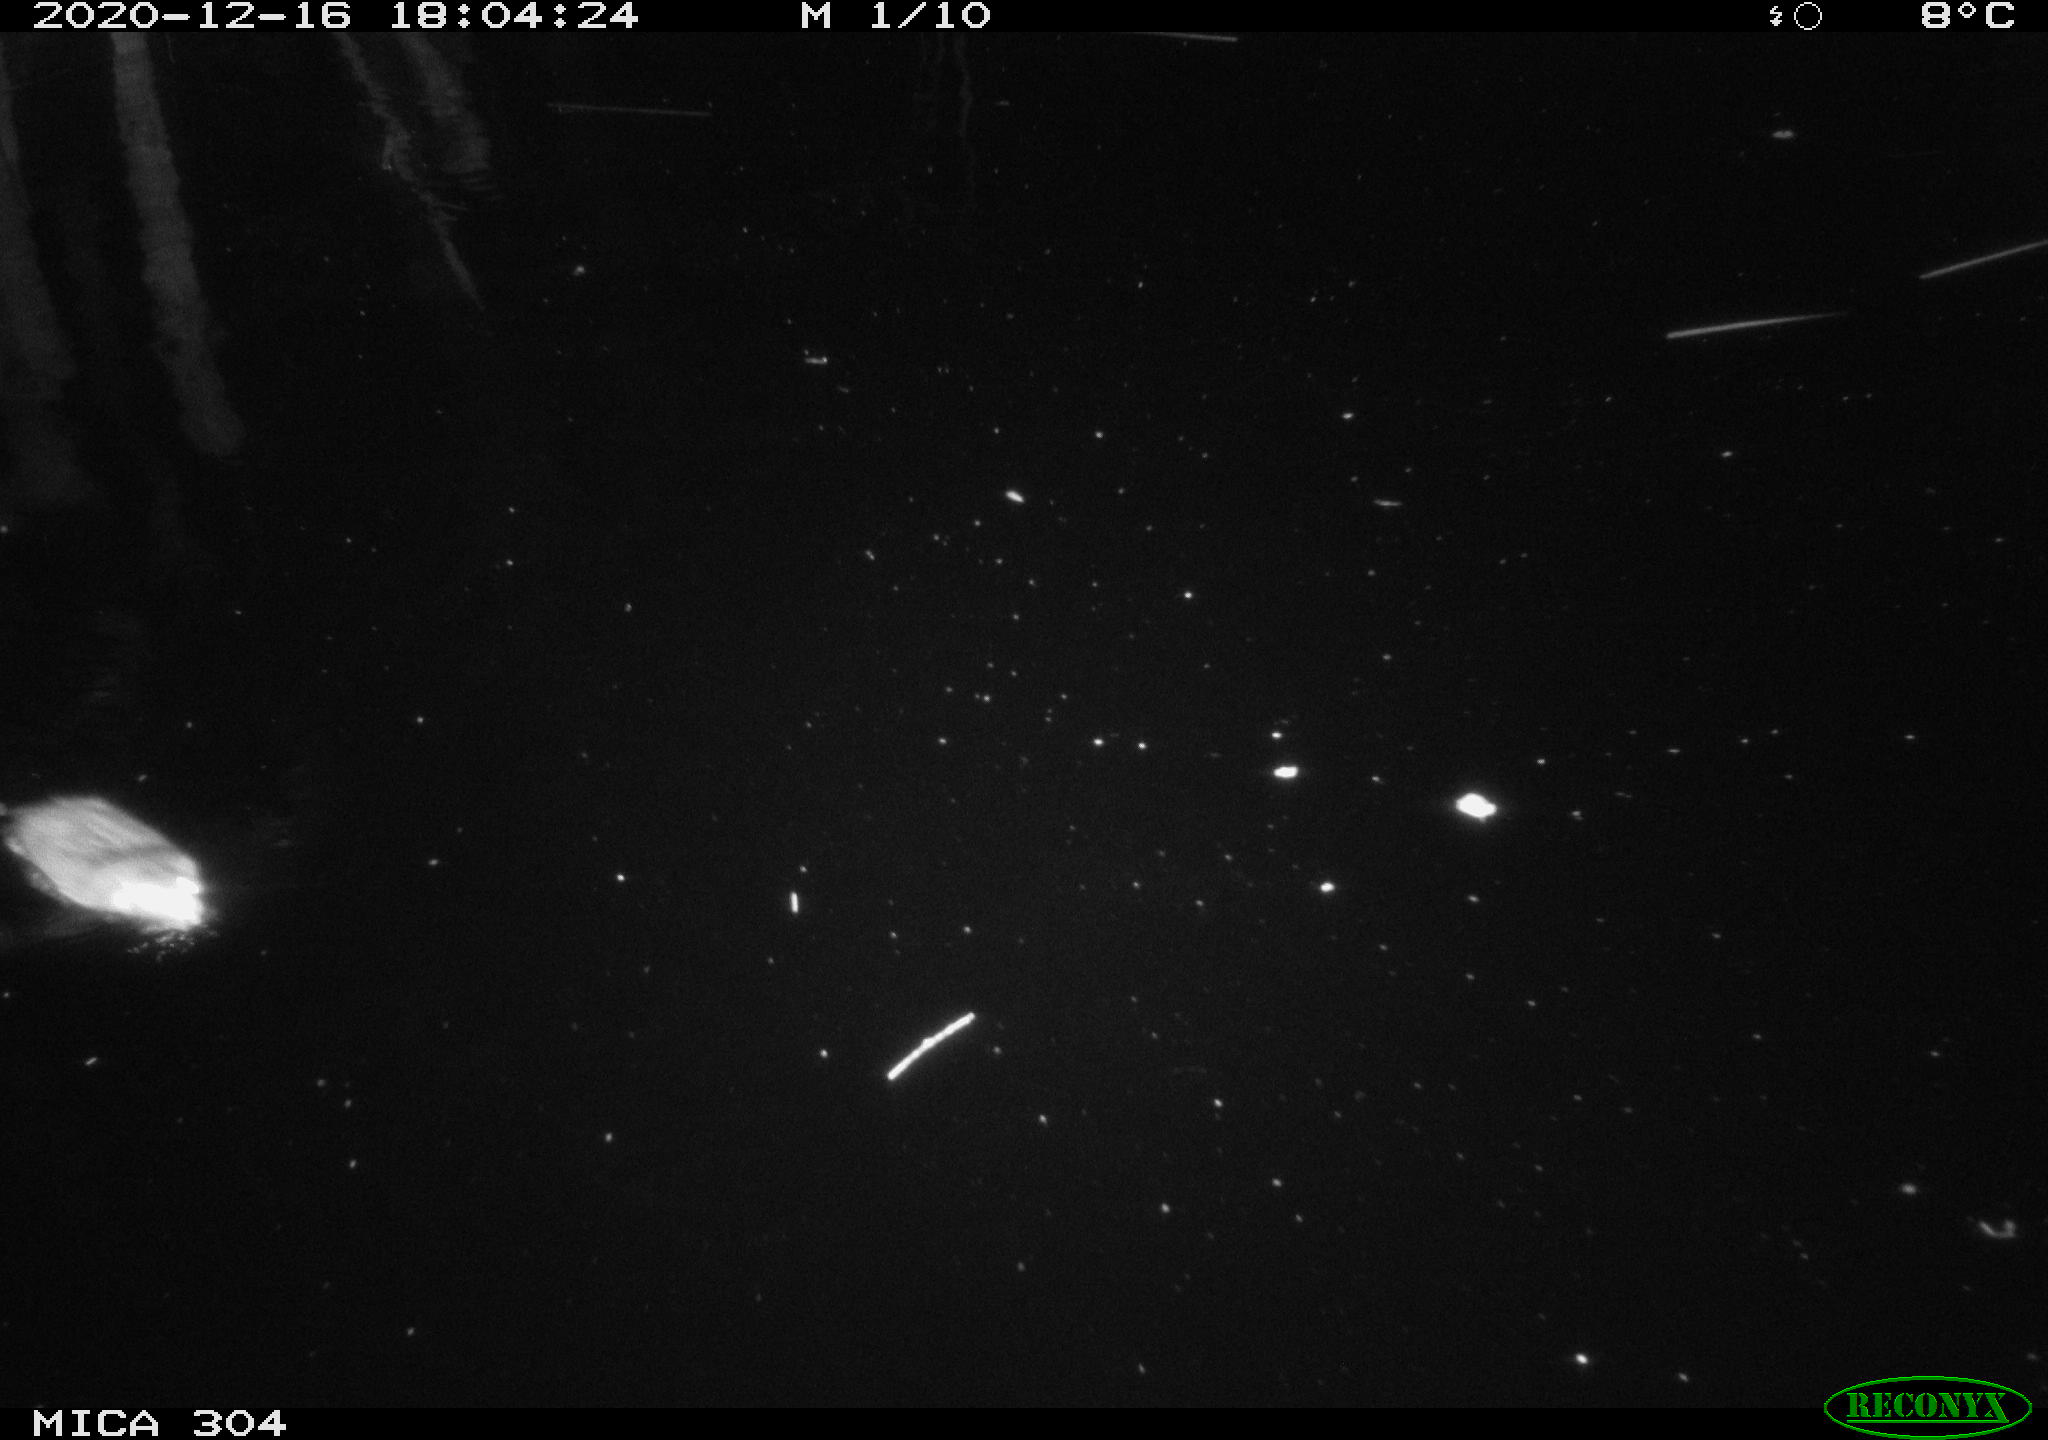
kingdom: Animalia
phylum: Chordata
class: Mammalia
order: Rodentia
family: Muridae
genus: Rattus
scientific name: Rattus norvegicus
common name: Brown rat
